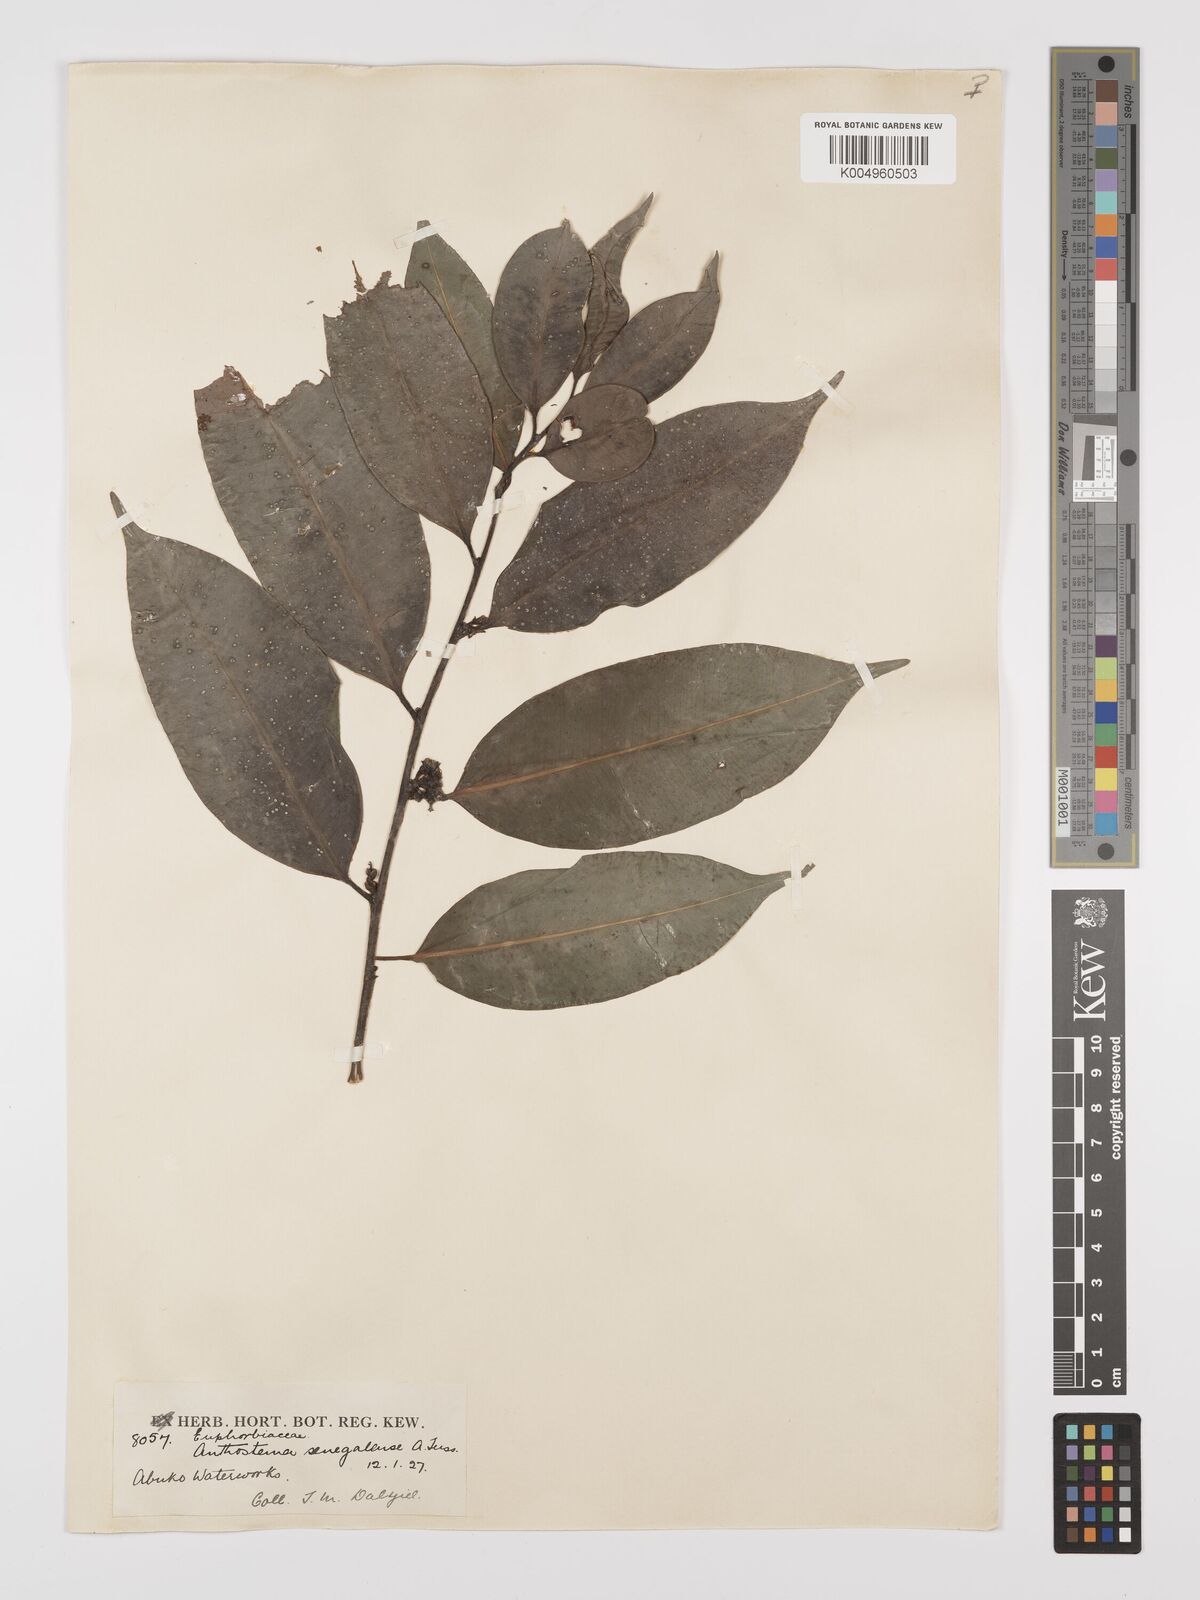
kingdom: Plantae
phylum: Tracheophyta
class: Magnoliopsida
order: Malpighiales
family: Euphorbiaceae
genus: Anthostema
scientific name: Anthostema senegalense
